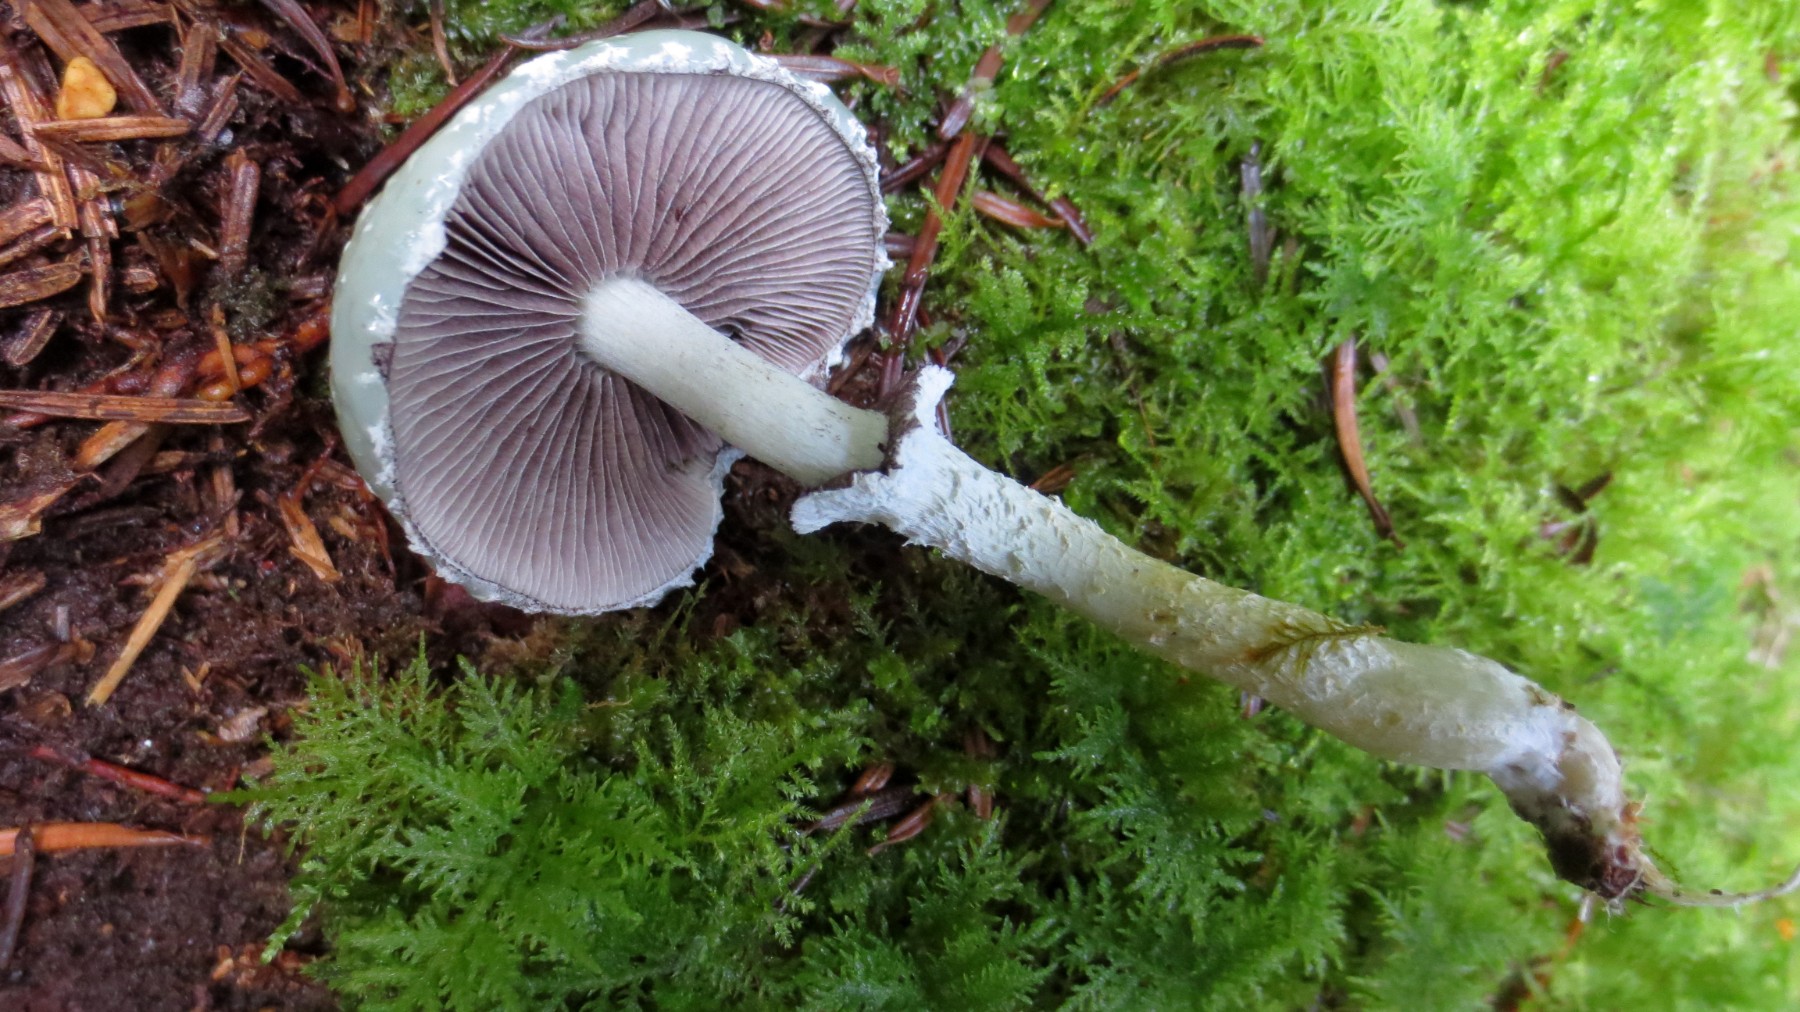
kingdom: Fungi
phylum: Basidiomycota
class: Agaricomycetes
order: Agaricales
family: Strophariaceae
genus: Stropharia
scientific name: Stropharia aeruginosa
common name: spanskgrøn bredblad
